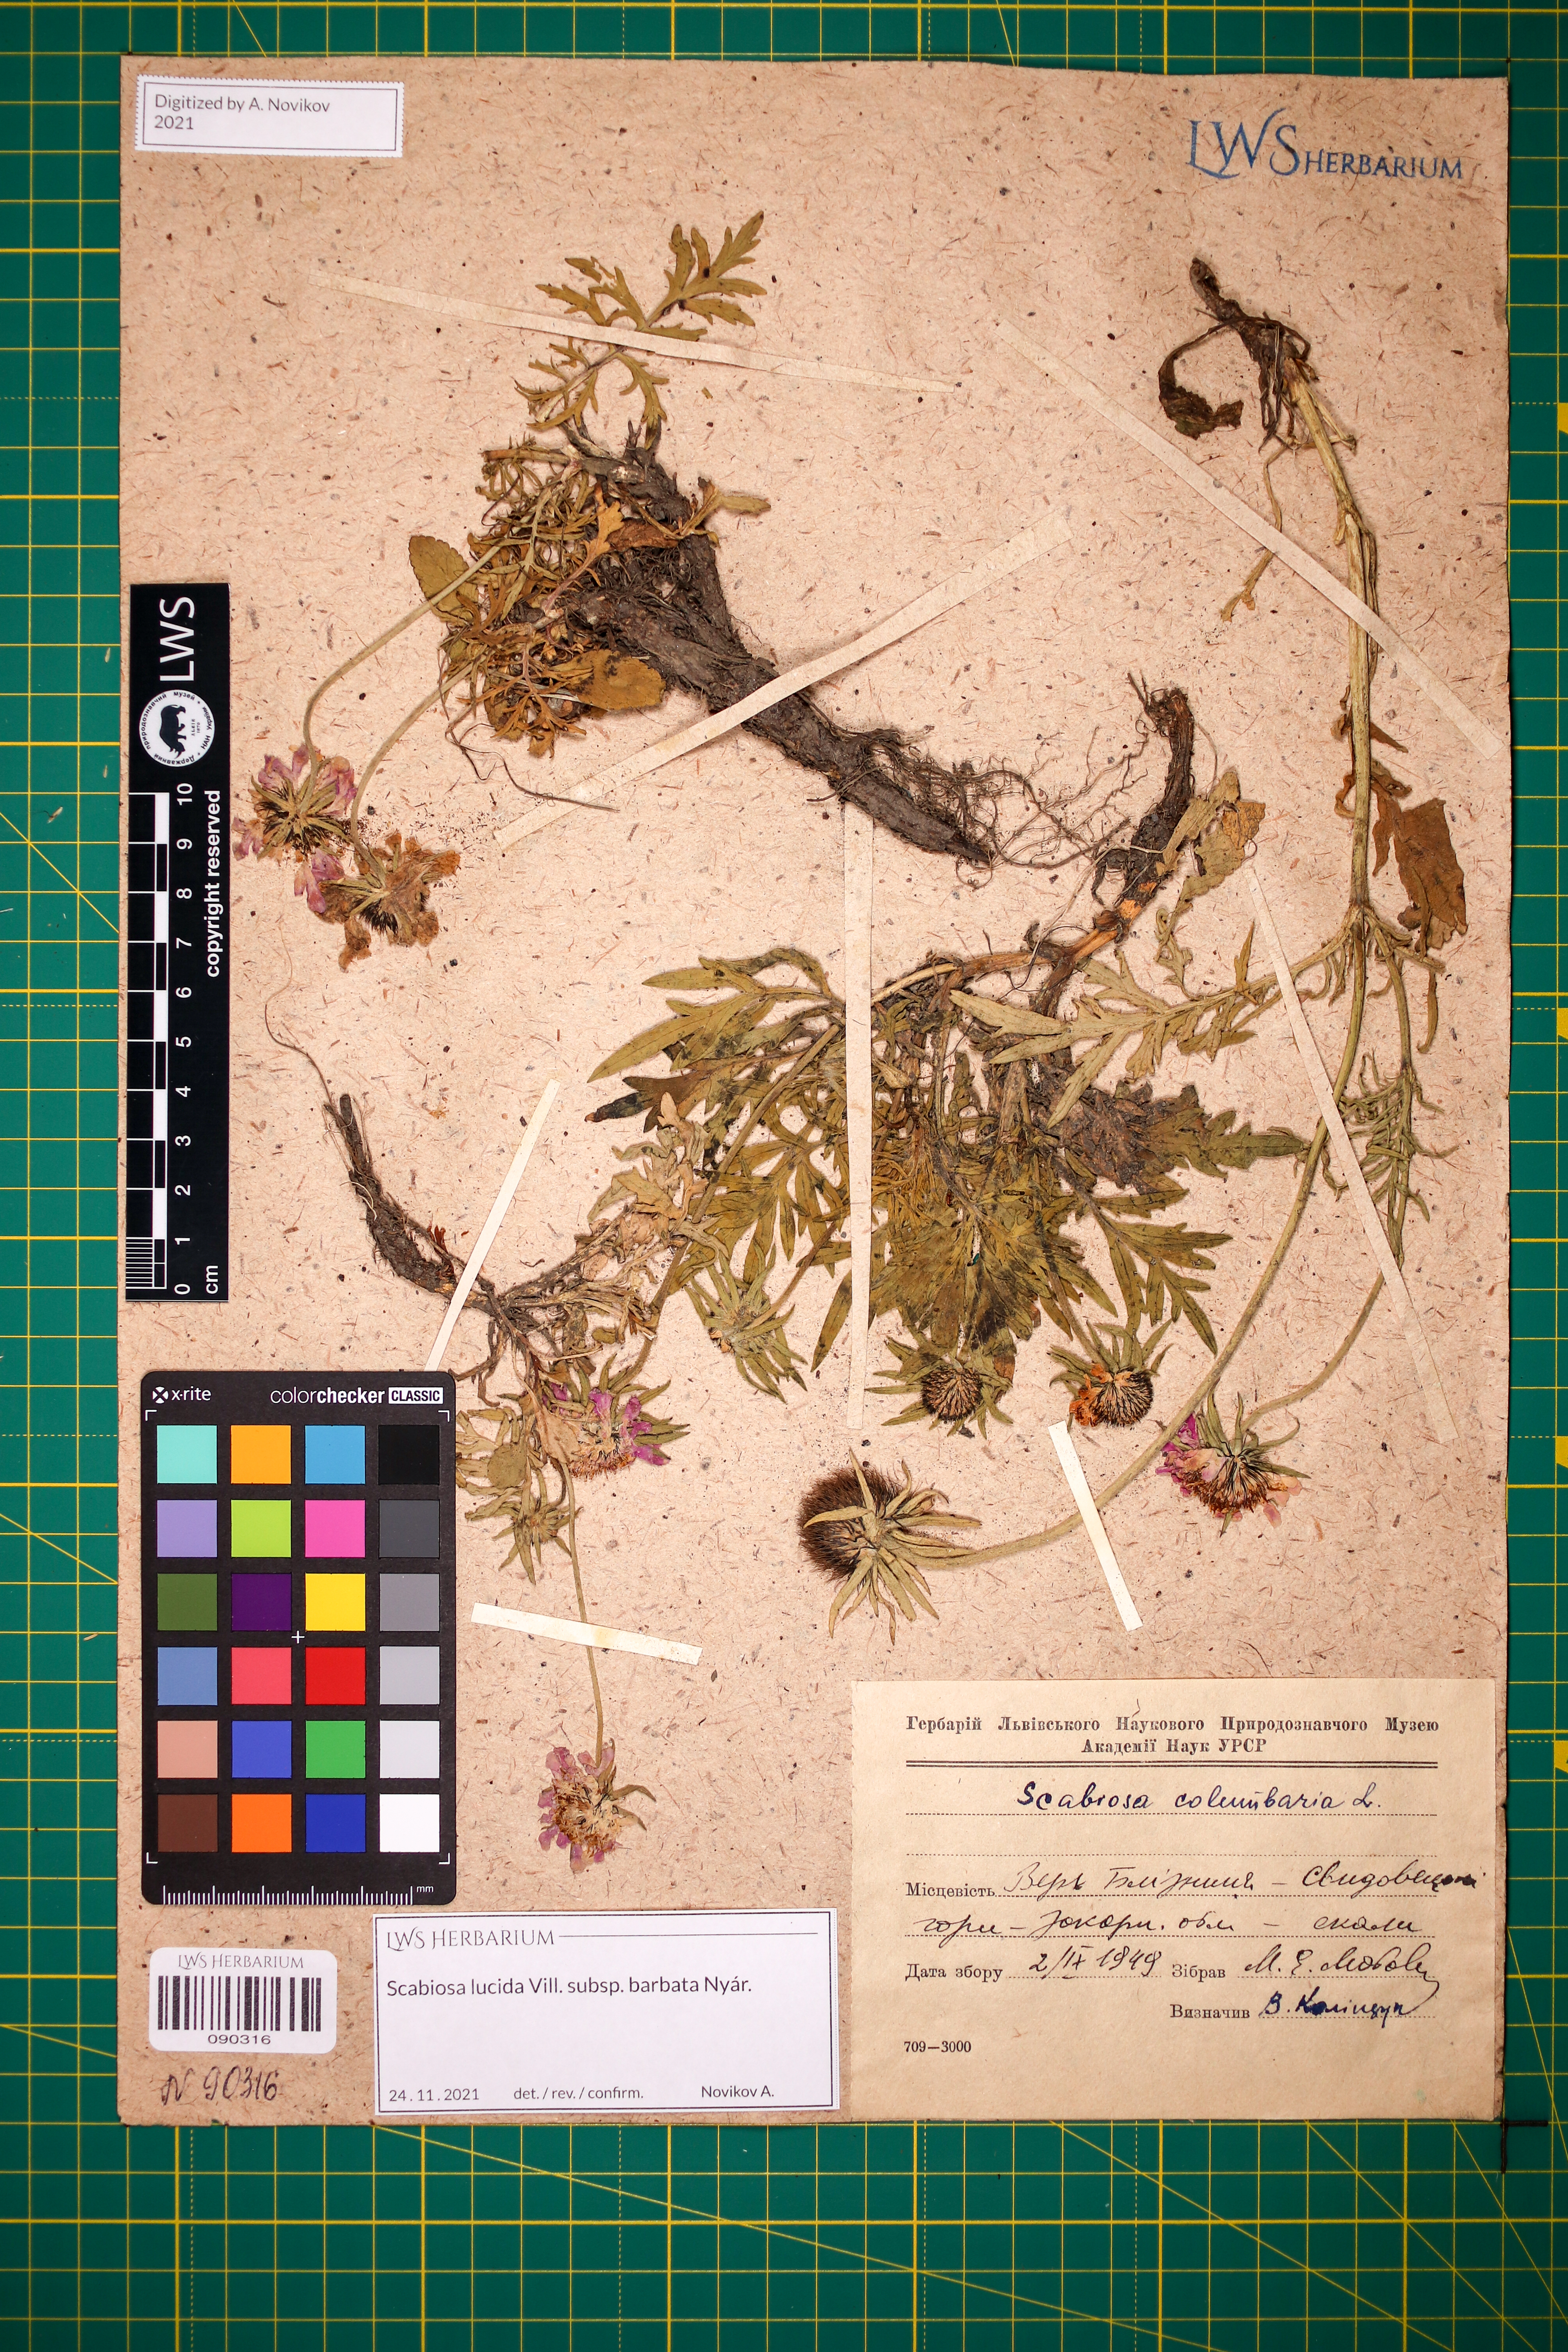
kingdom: Plantae
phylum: Tracheophyta
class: Magnoliopsida
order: Dipsacales
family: Caprifoliaceae
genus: Scabiosa
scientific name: Scabiosa lucida
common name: Shining scabious
